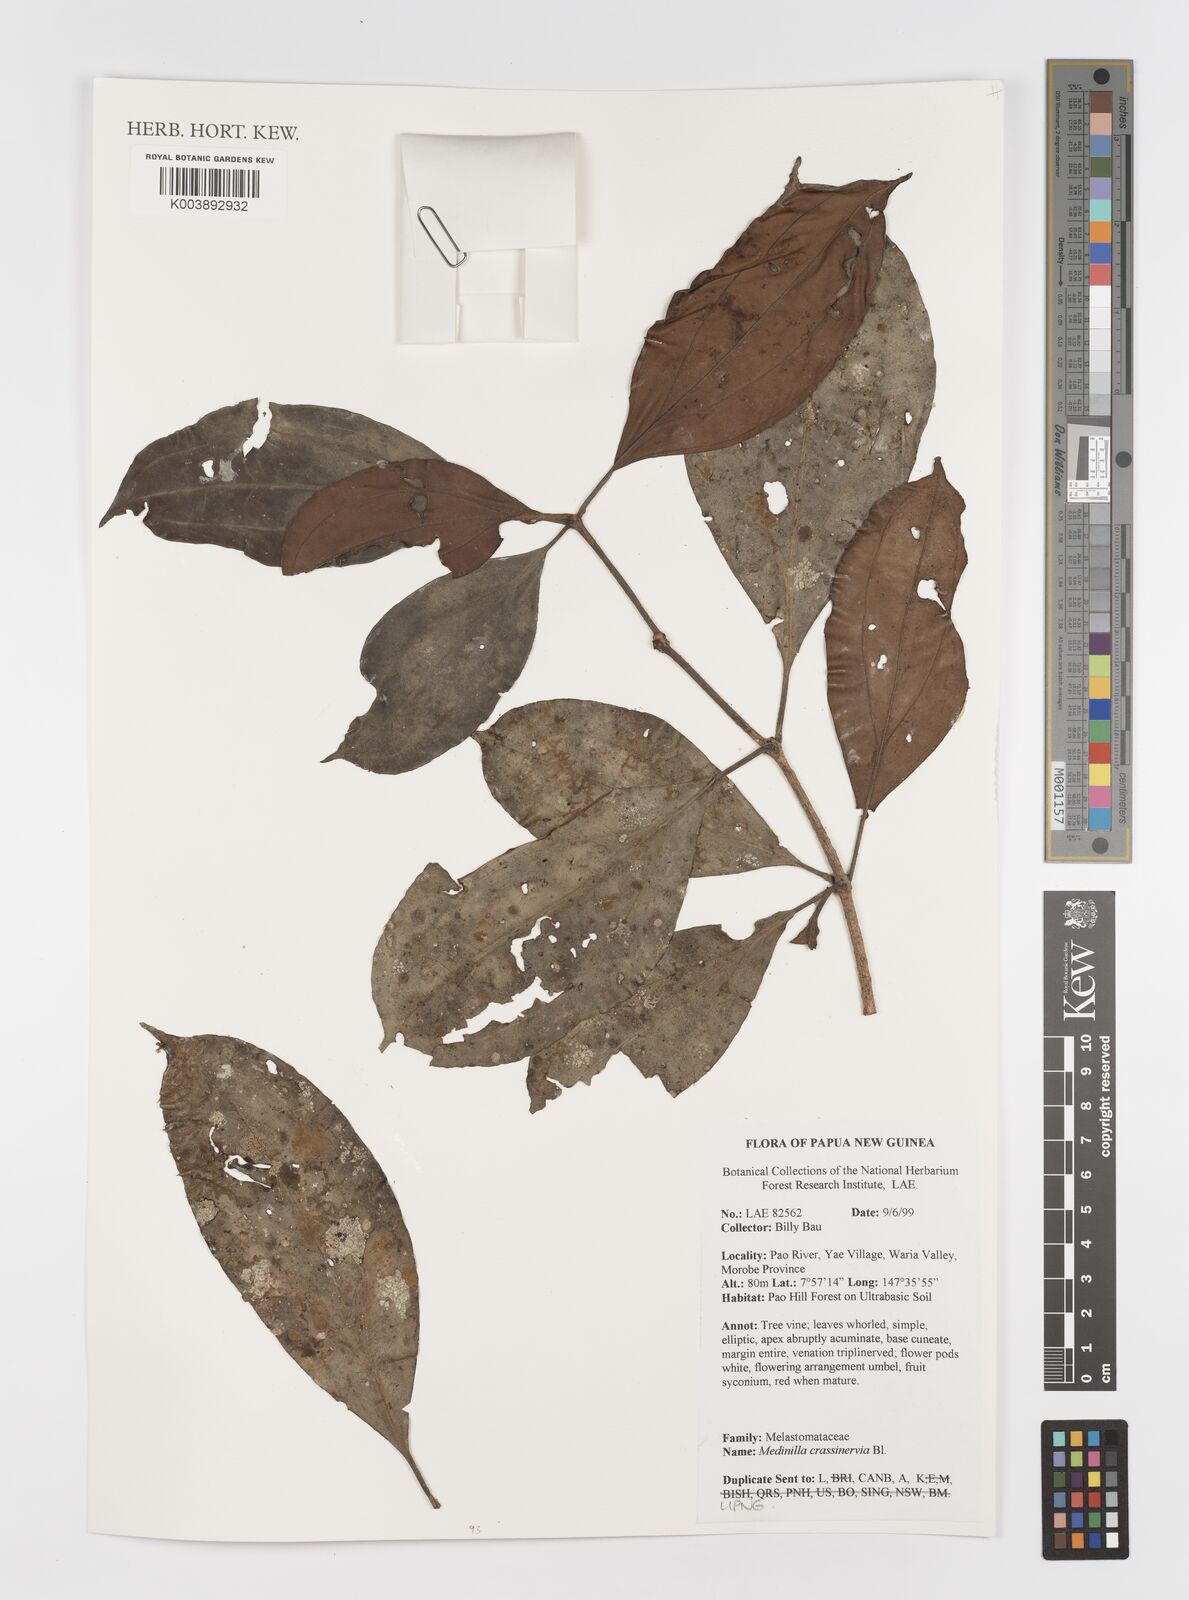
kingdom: Plantae
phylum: Tracheophyta
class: Magnoliopsida
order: Myrtales
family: Melastomataceae
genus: Medinilla
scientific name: Medinilla crassinervia
